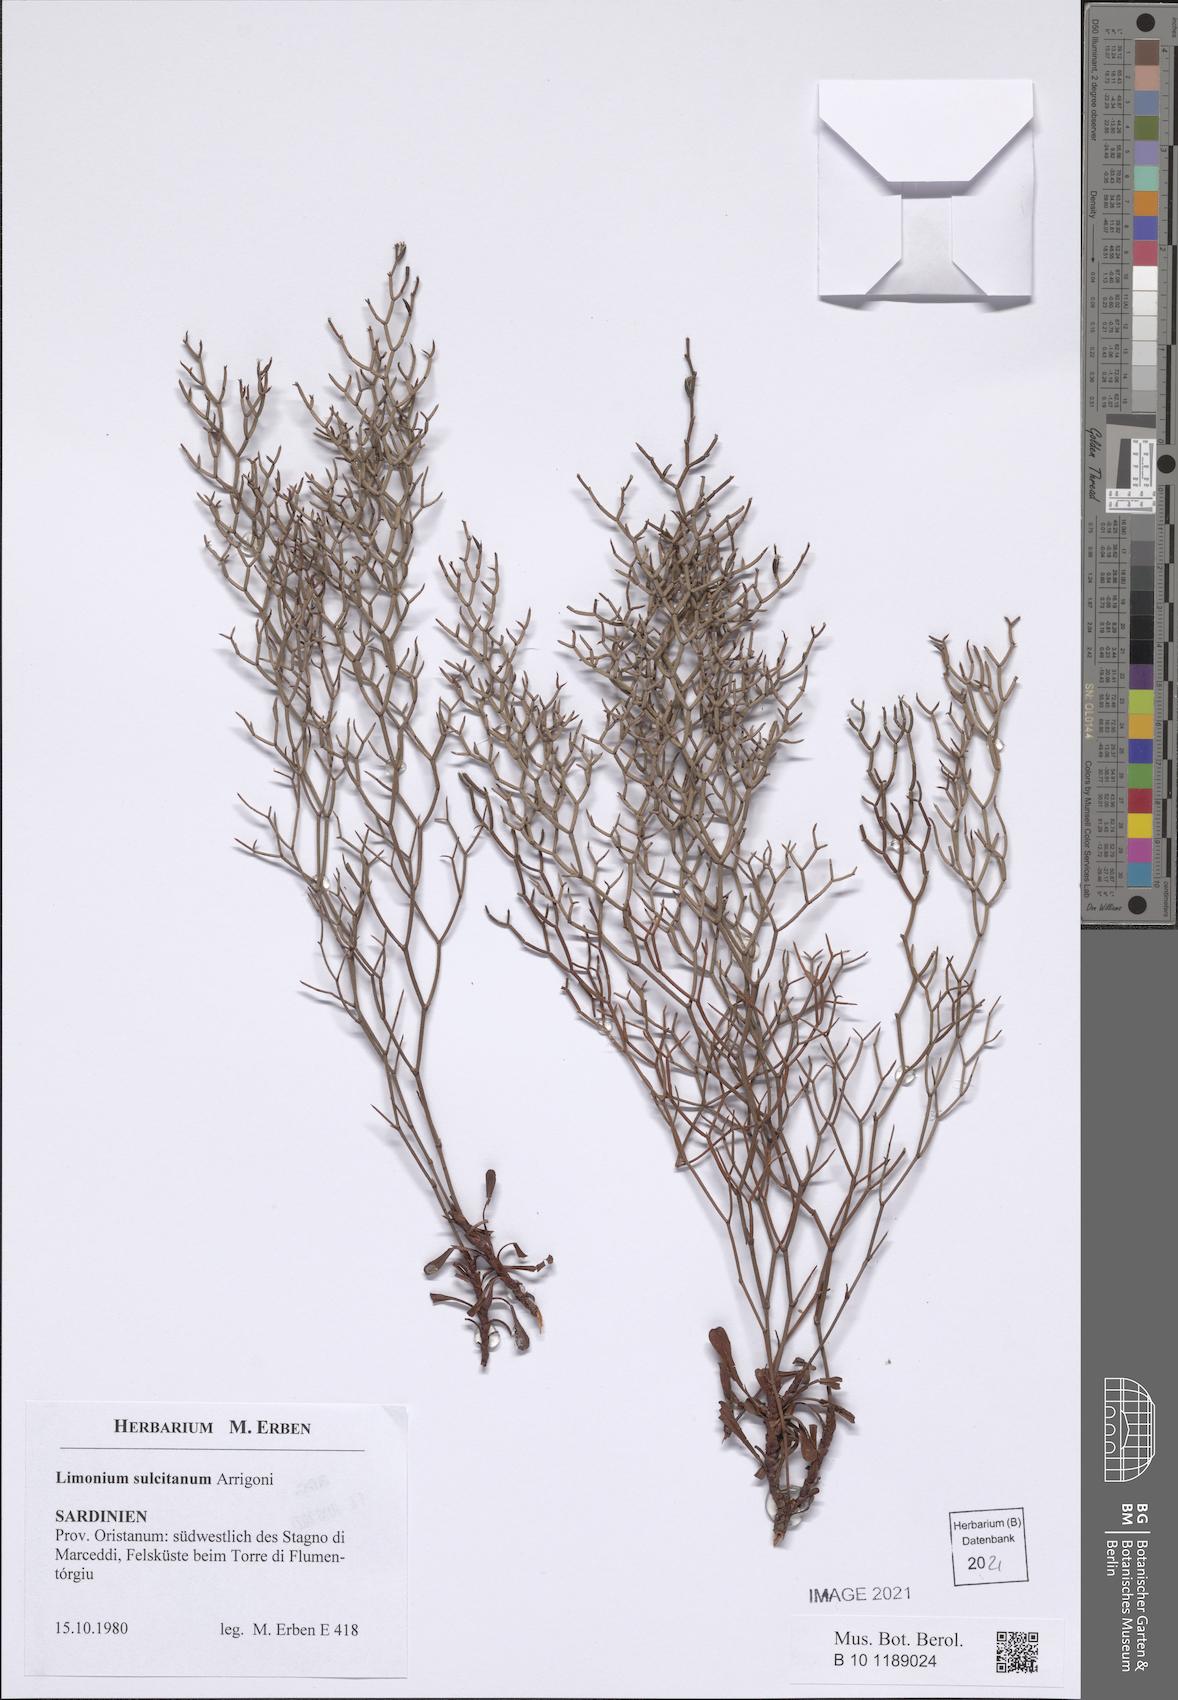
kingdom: Plantae
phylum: Tracheophyta
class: Magnoliopsida
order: Caryophyllales
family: Plumbaginaceae
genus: Limonium
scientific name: Limonium sulcitanum
